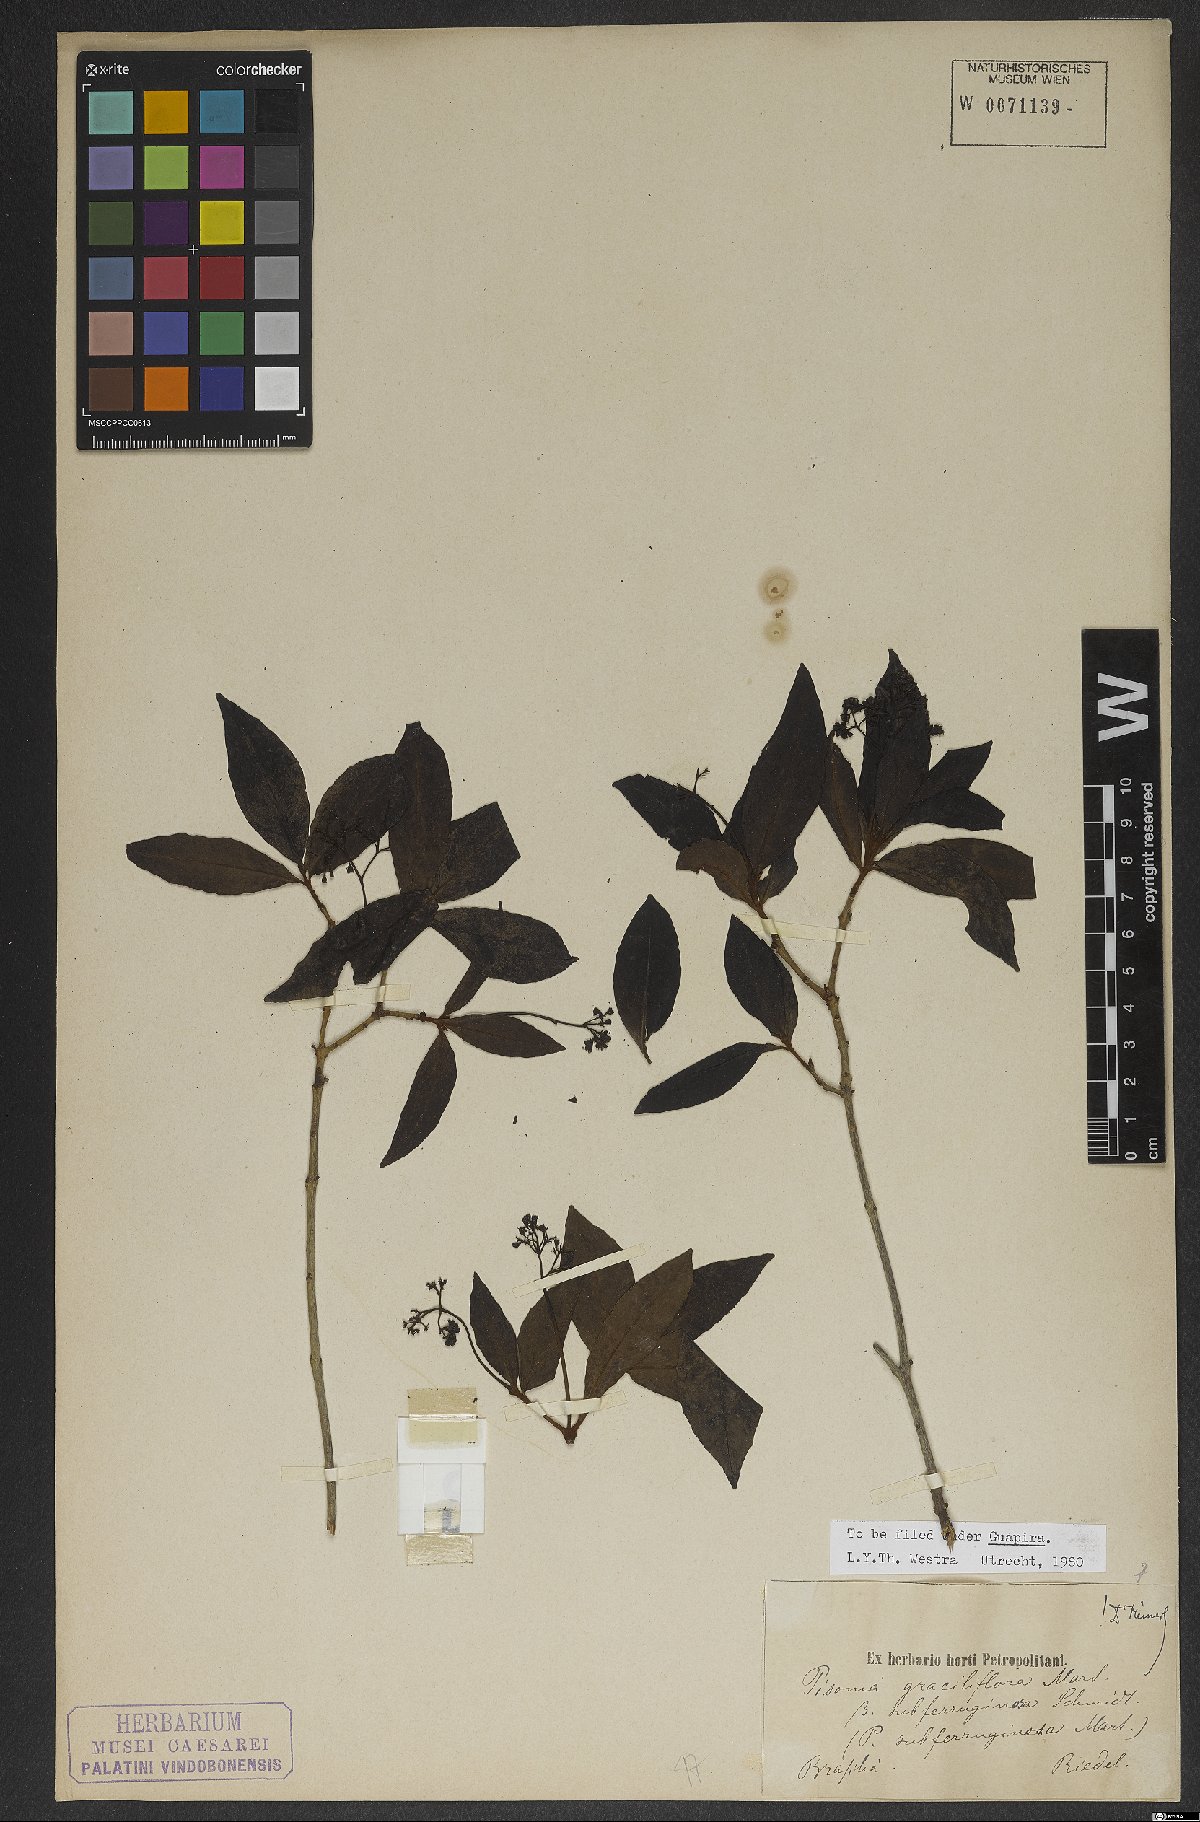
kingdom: Plantae
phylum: Tracheophyta
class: Magnoliopsida
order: Caryophyllales
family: Nyctaginaceae
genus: Guapira
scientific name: Guapira graciliflora
